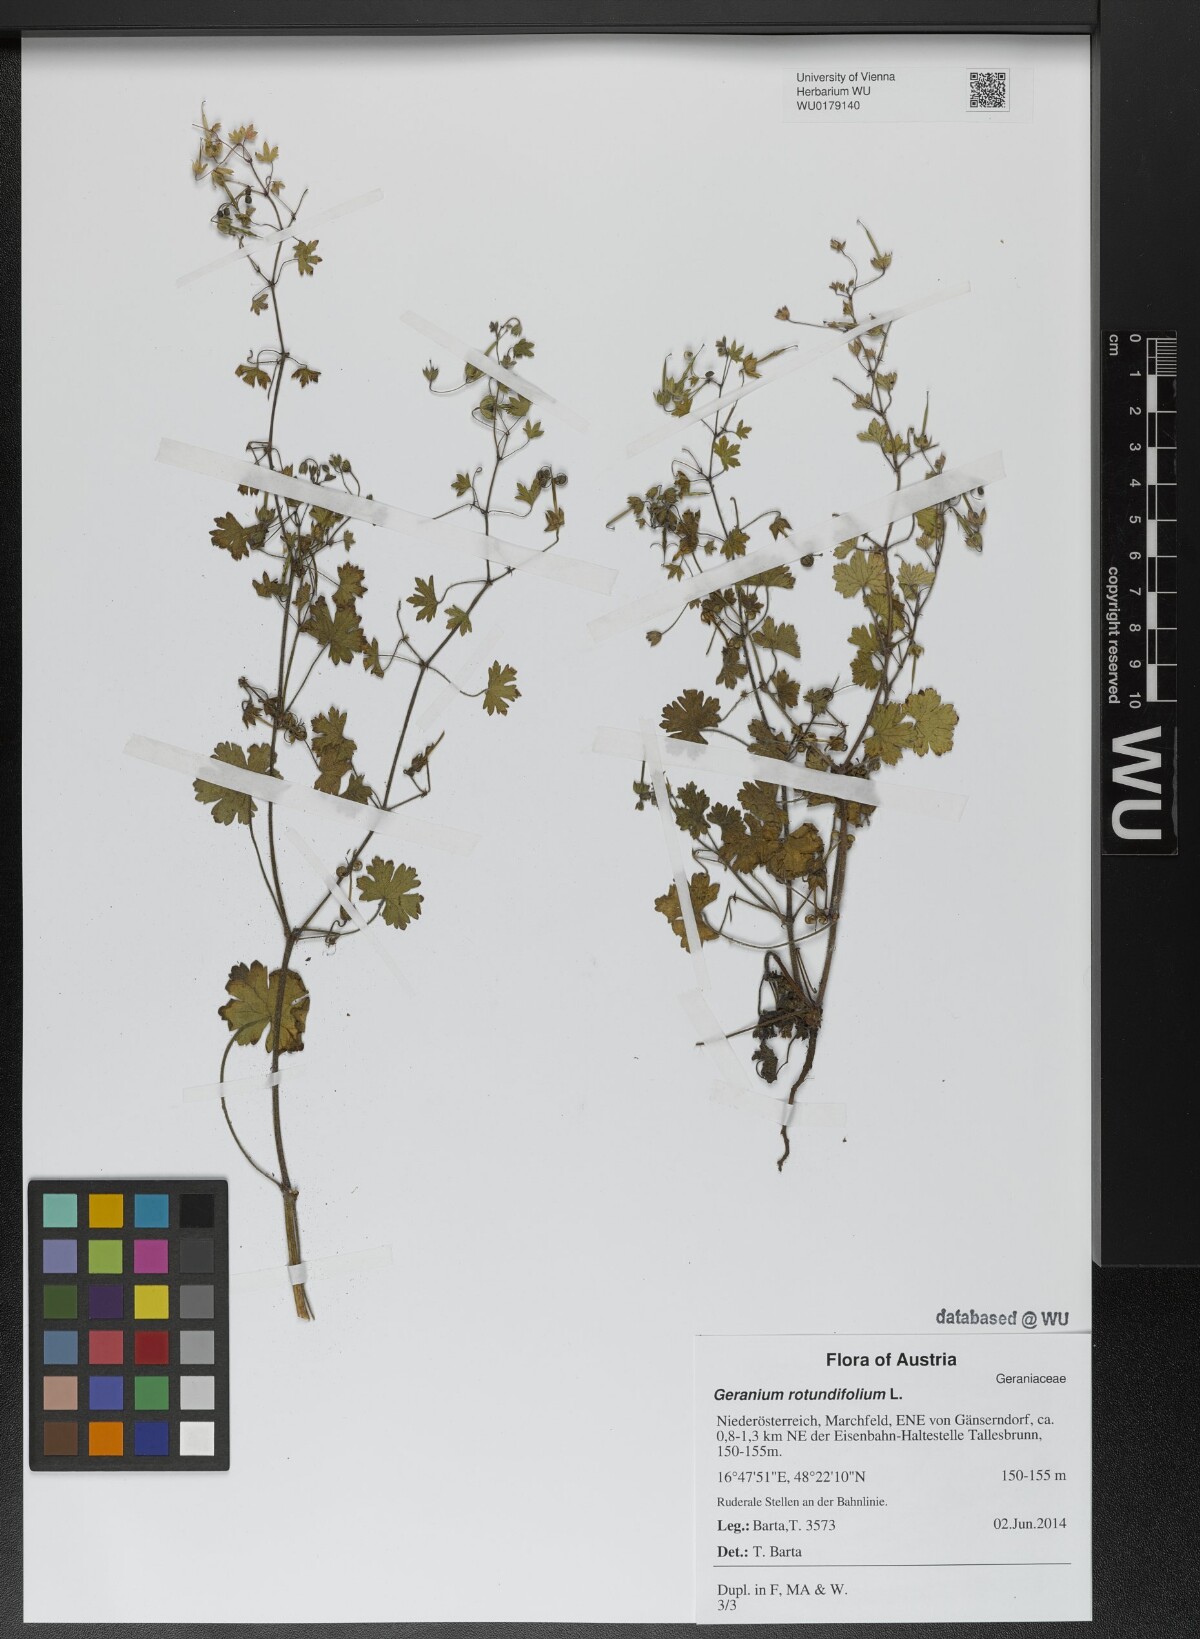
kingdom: Plantae
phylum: Tracheophyta
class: Magnoliopsida
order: Geraniales
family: Geraniaceae
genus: Geranium
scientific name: Geranium rotundifolium
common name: Round-leaved crane's-bill
